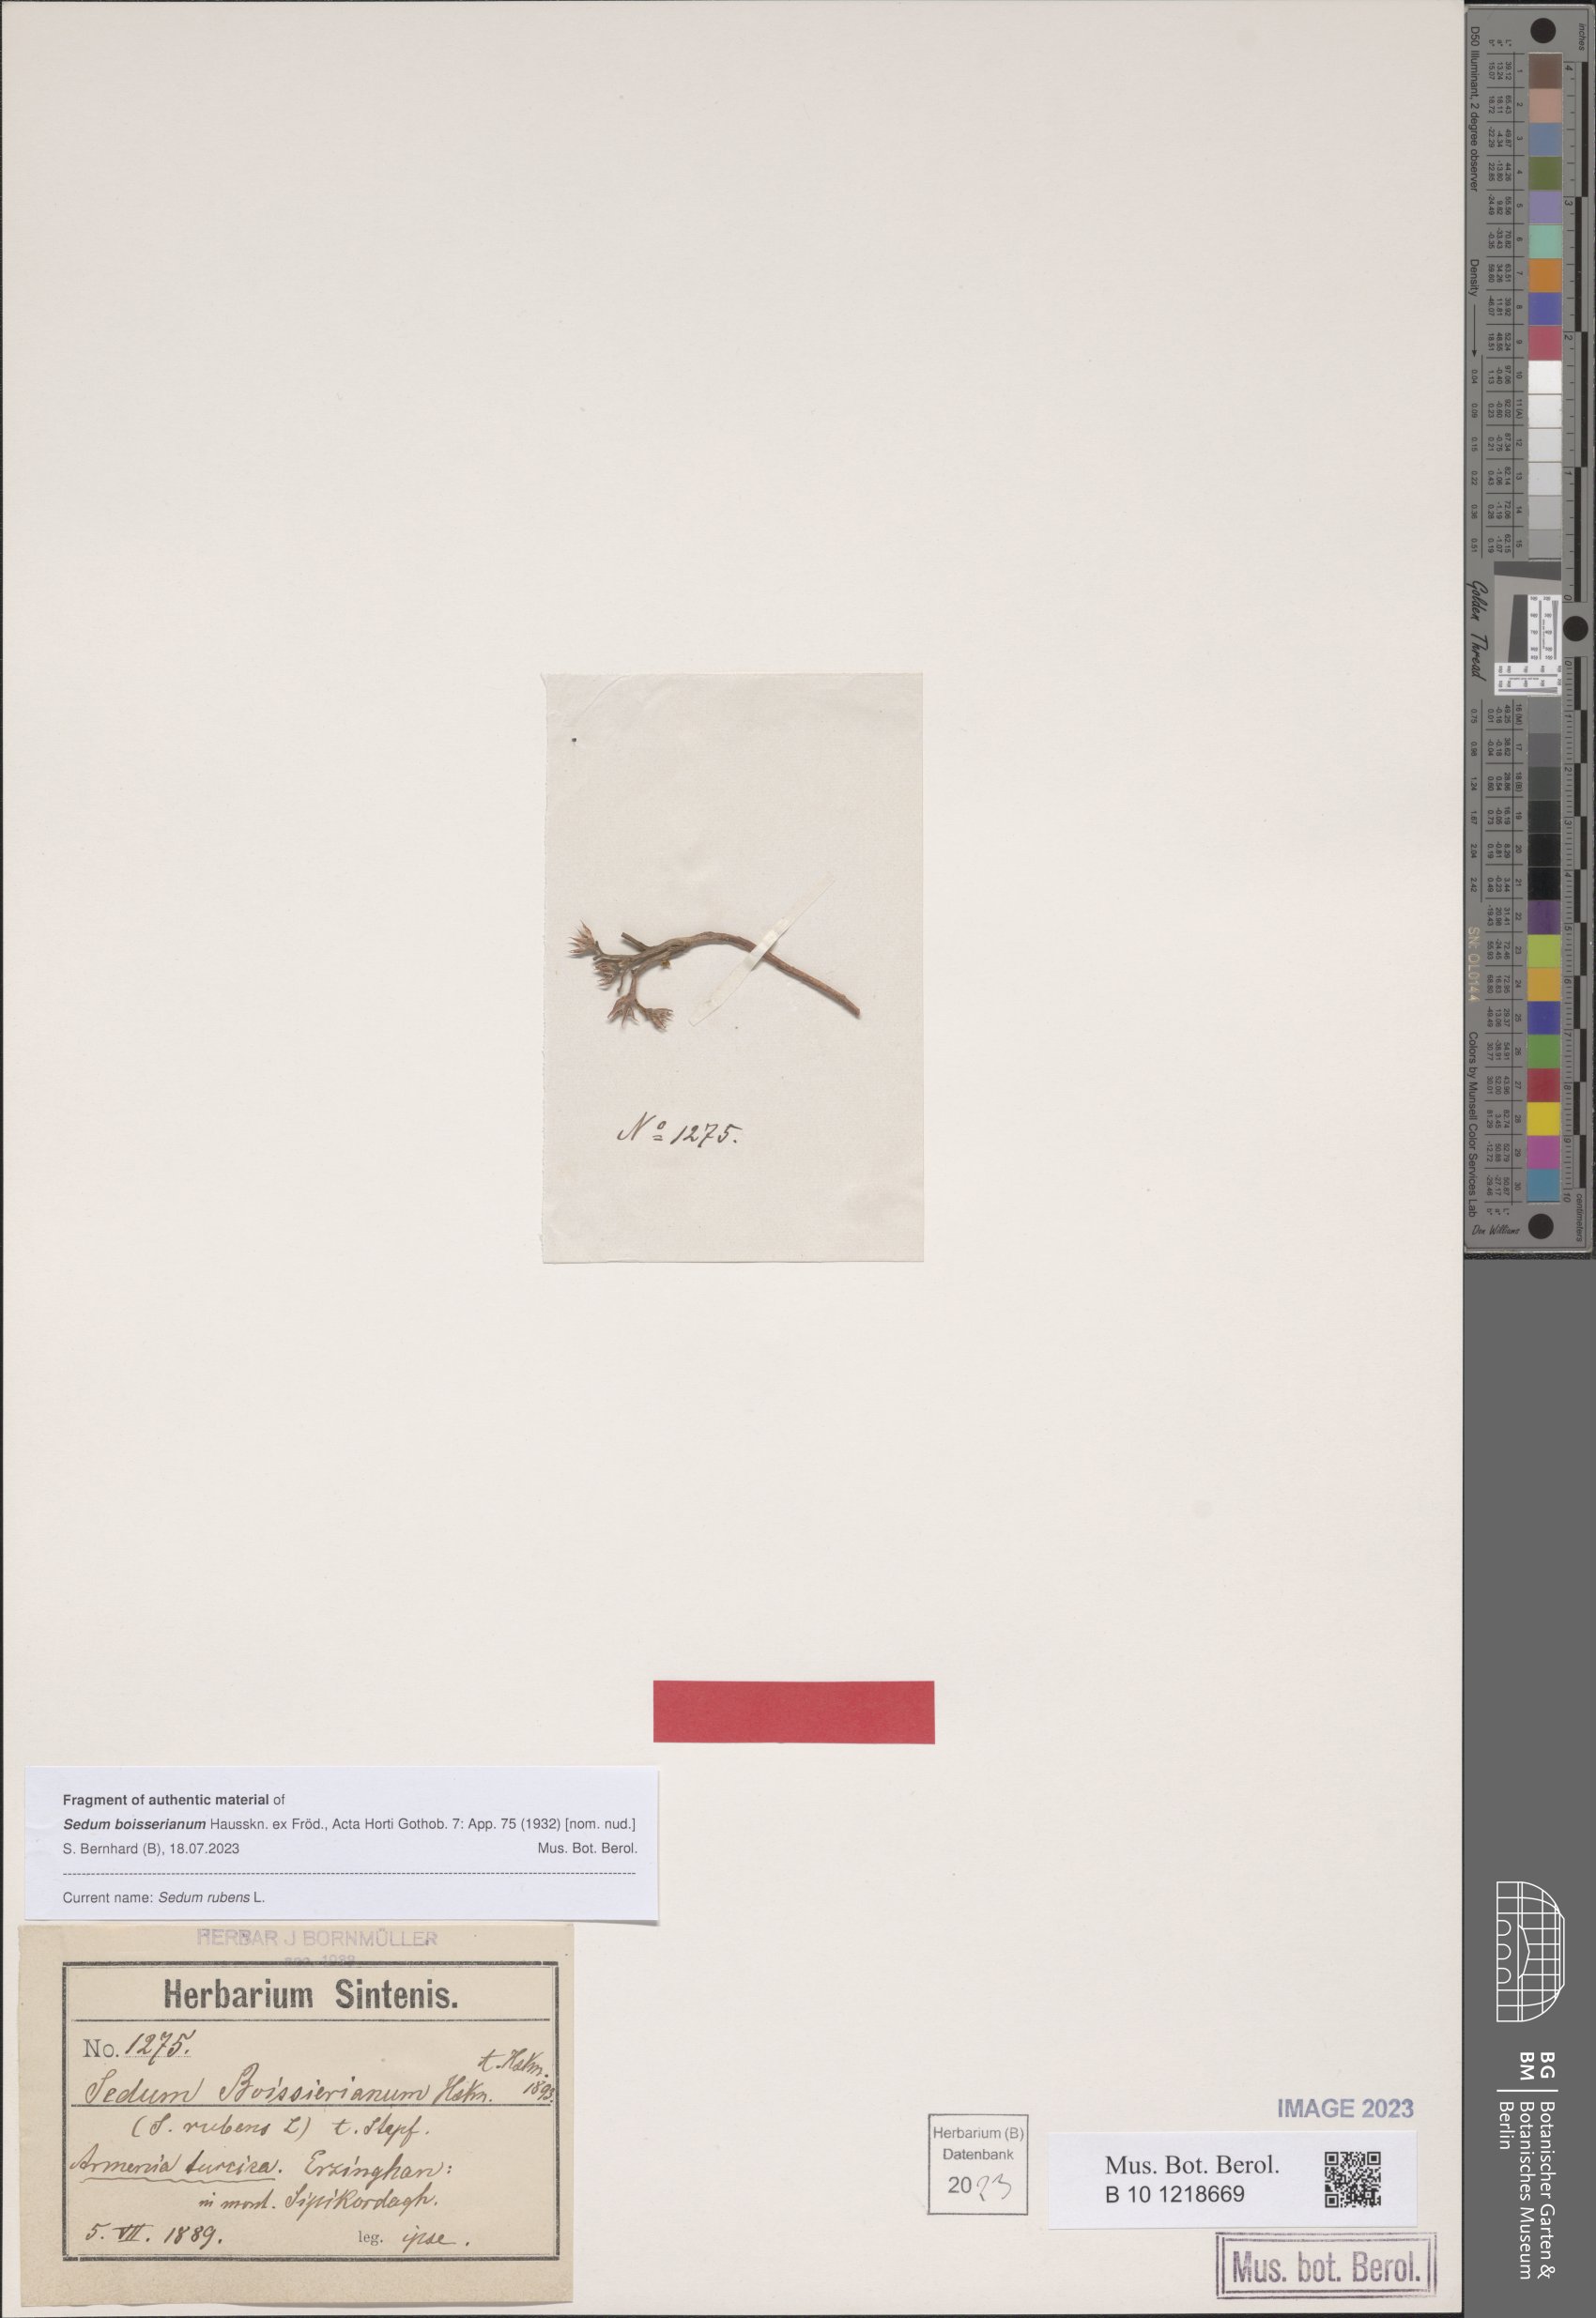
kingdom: Plantae
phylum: Tracheophyta
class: Magnoliopsida
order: Saxifragales
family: Crassulaceae
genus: Sedum
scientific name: Sedum rubens
